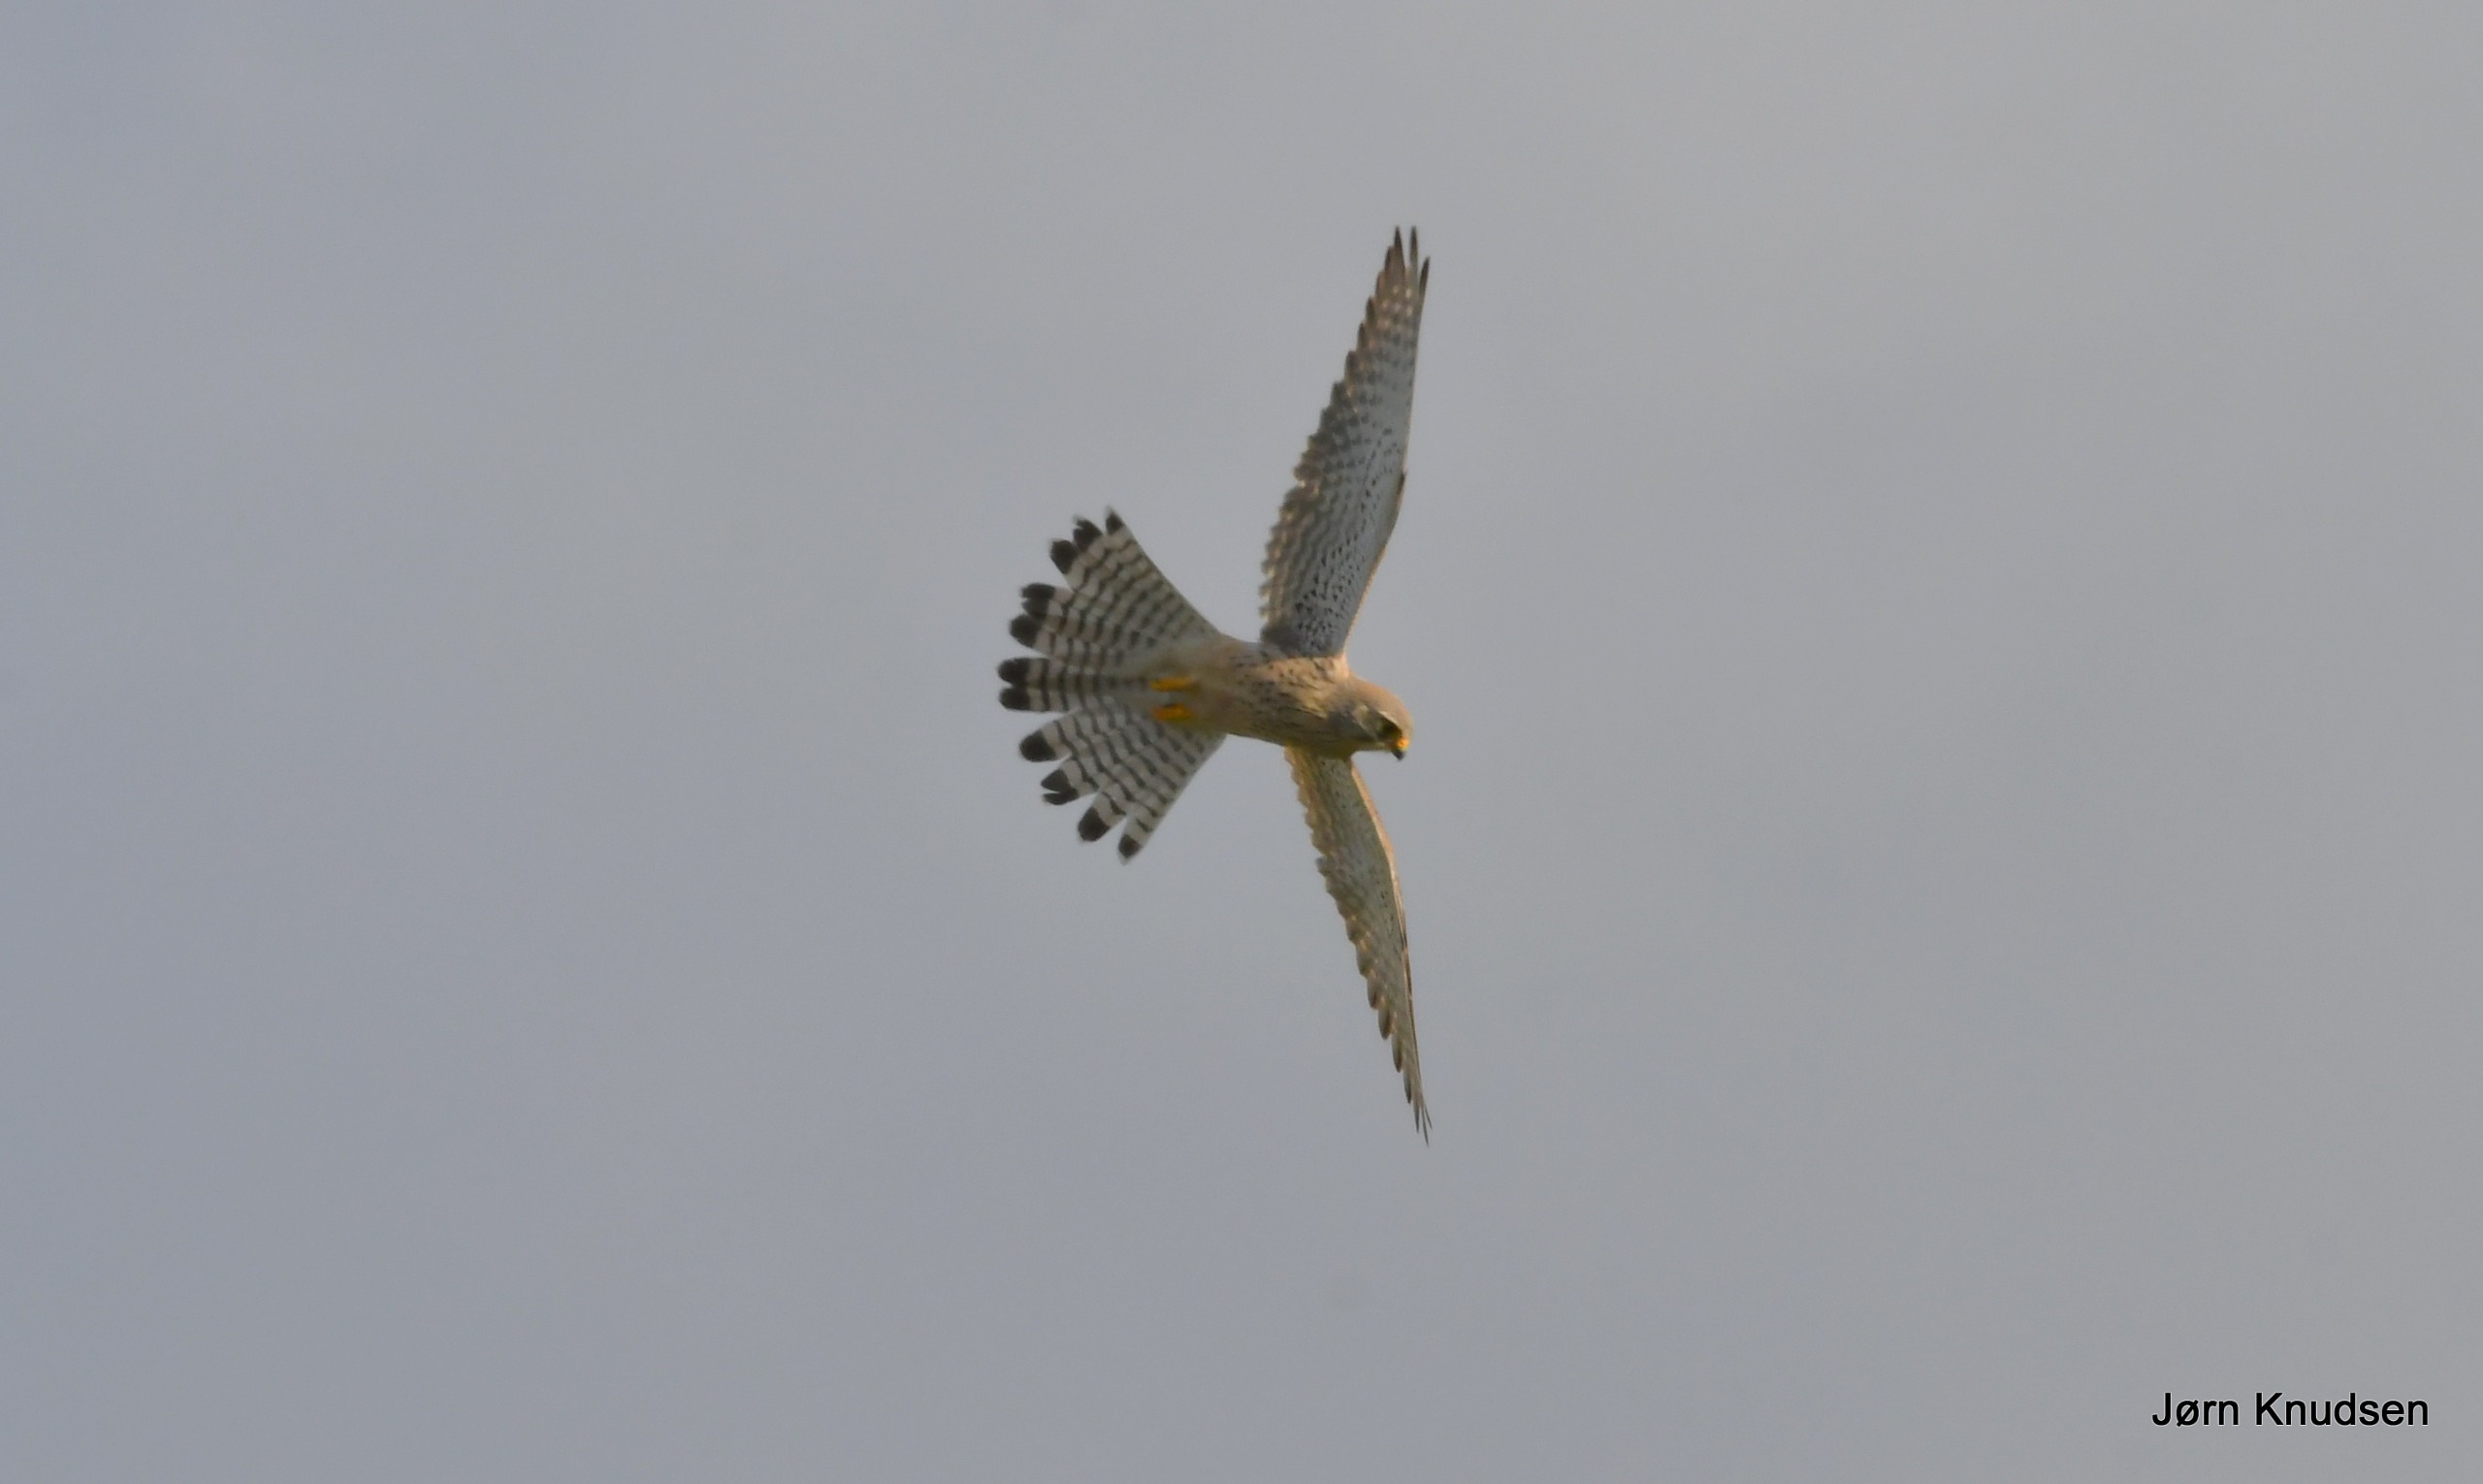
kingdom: Animalia
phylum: Chordata
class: Aves
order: Falconiformes
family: Falconidae
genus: Falco
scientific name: Falco tinnunculus
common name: Tårnfalk
